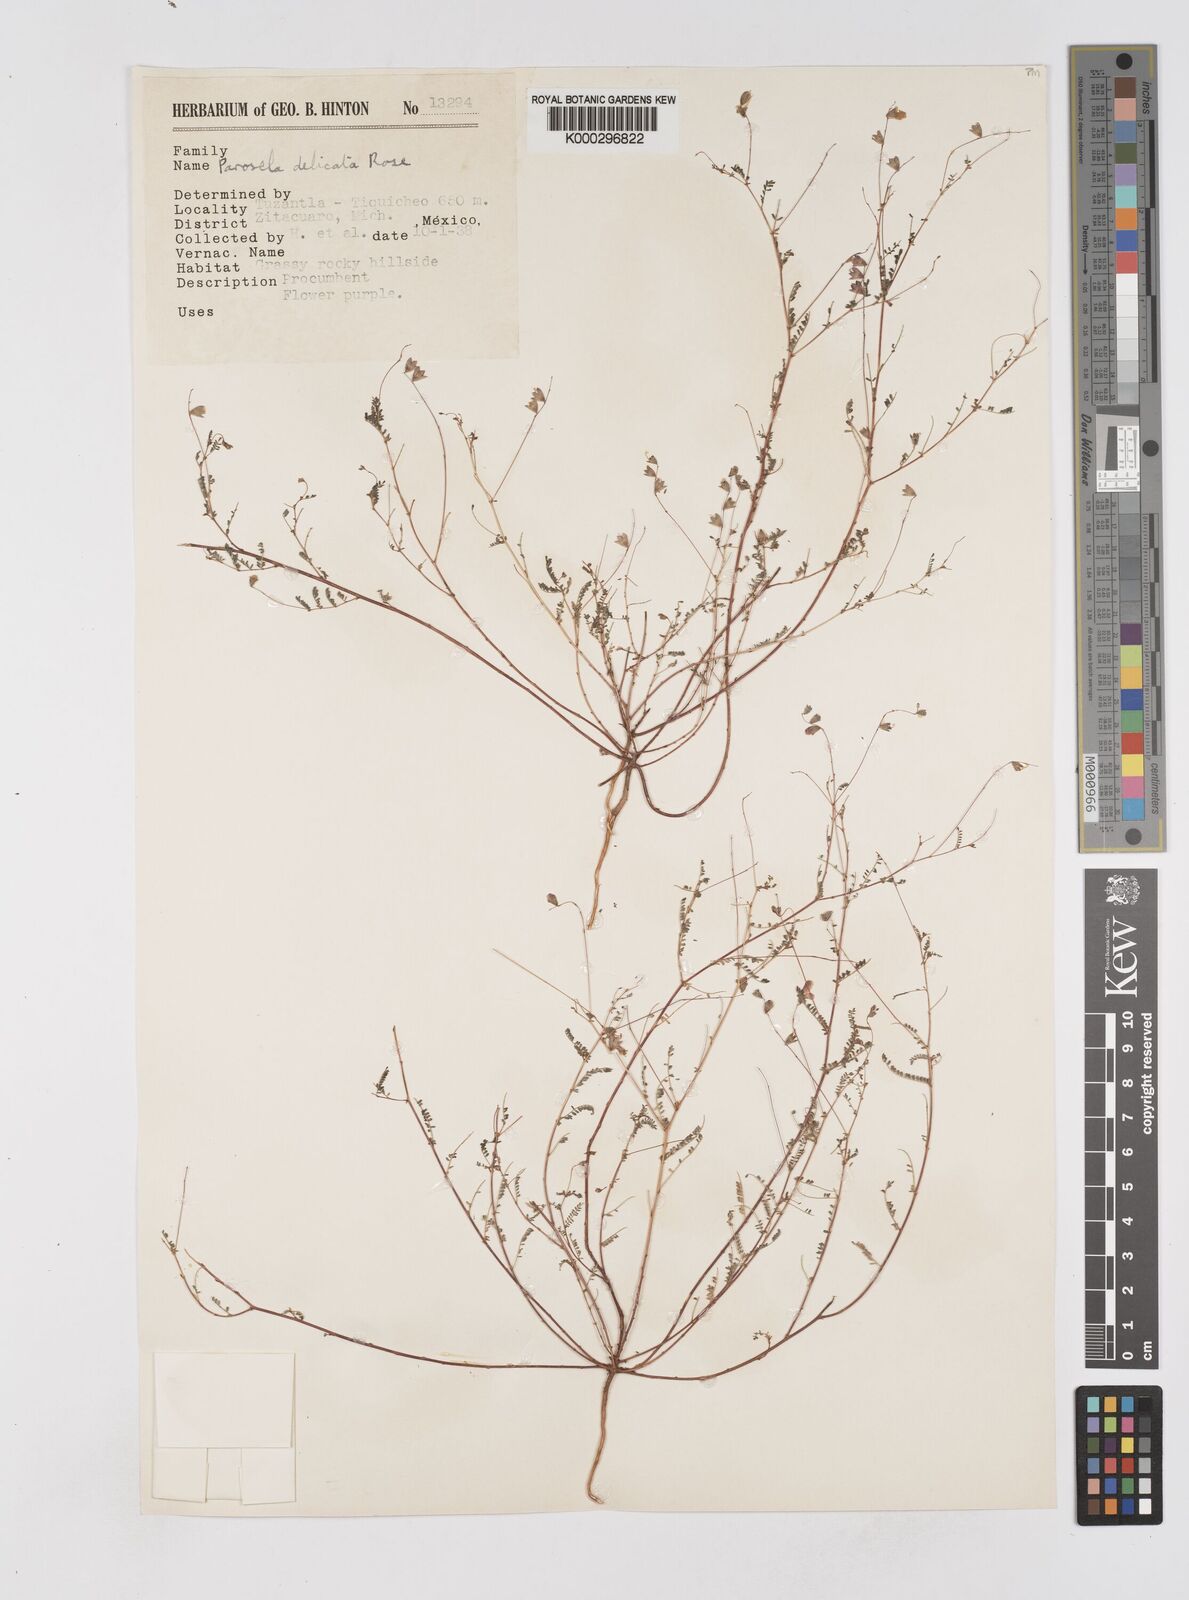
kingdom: Plantae
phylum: Tracheophyta
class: Magnoliopsida
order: Fabales
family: Fabaceae
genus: Marina
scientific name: Marina gracilis
